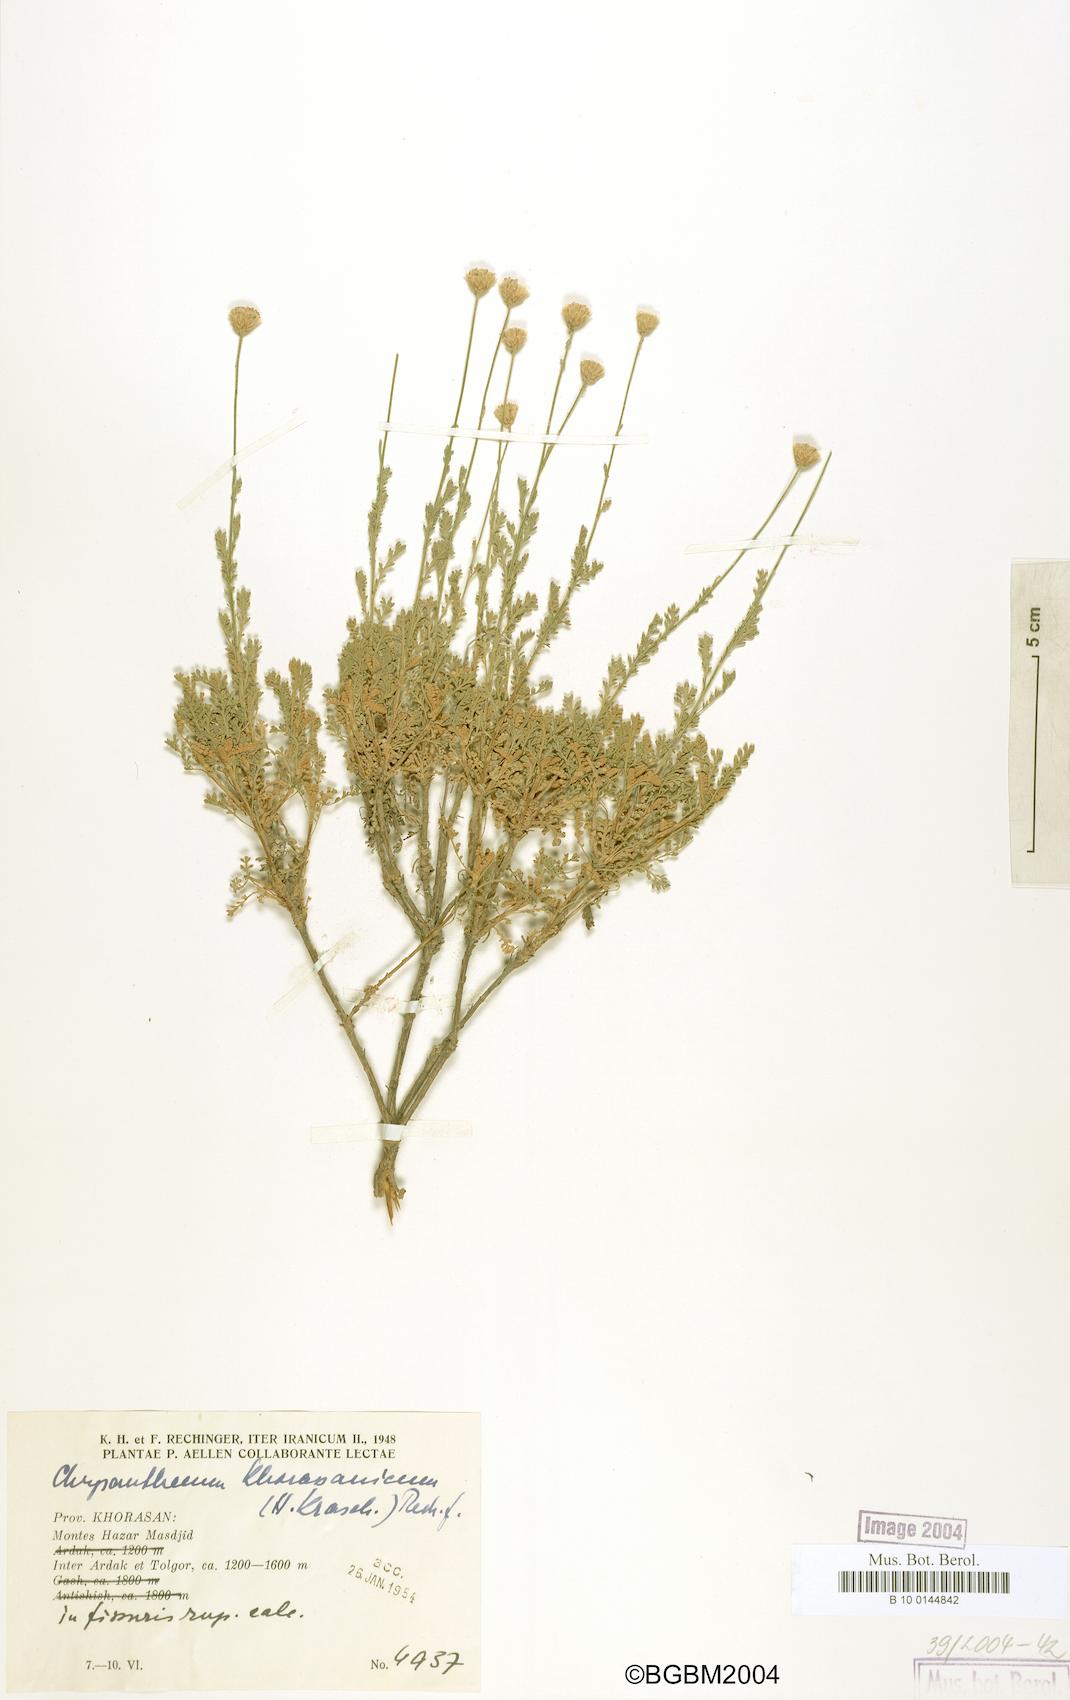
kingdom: Plantae
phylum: Tracheophyta
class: Magnoliopsida
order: Asterales
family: Asteraceae
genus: Tanacetum
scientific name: Tanacetum khorassanicum
